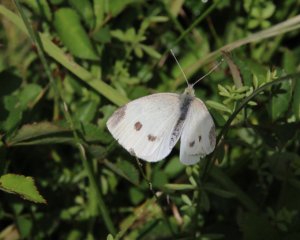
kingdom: Animalia
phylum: Arthropoda
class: Insecta
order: Lepidoptera
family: Pieridae
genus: Pieris
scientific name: Pieris rapae
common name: Cabbage White
